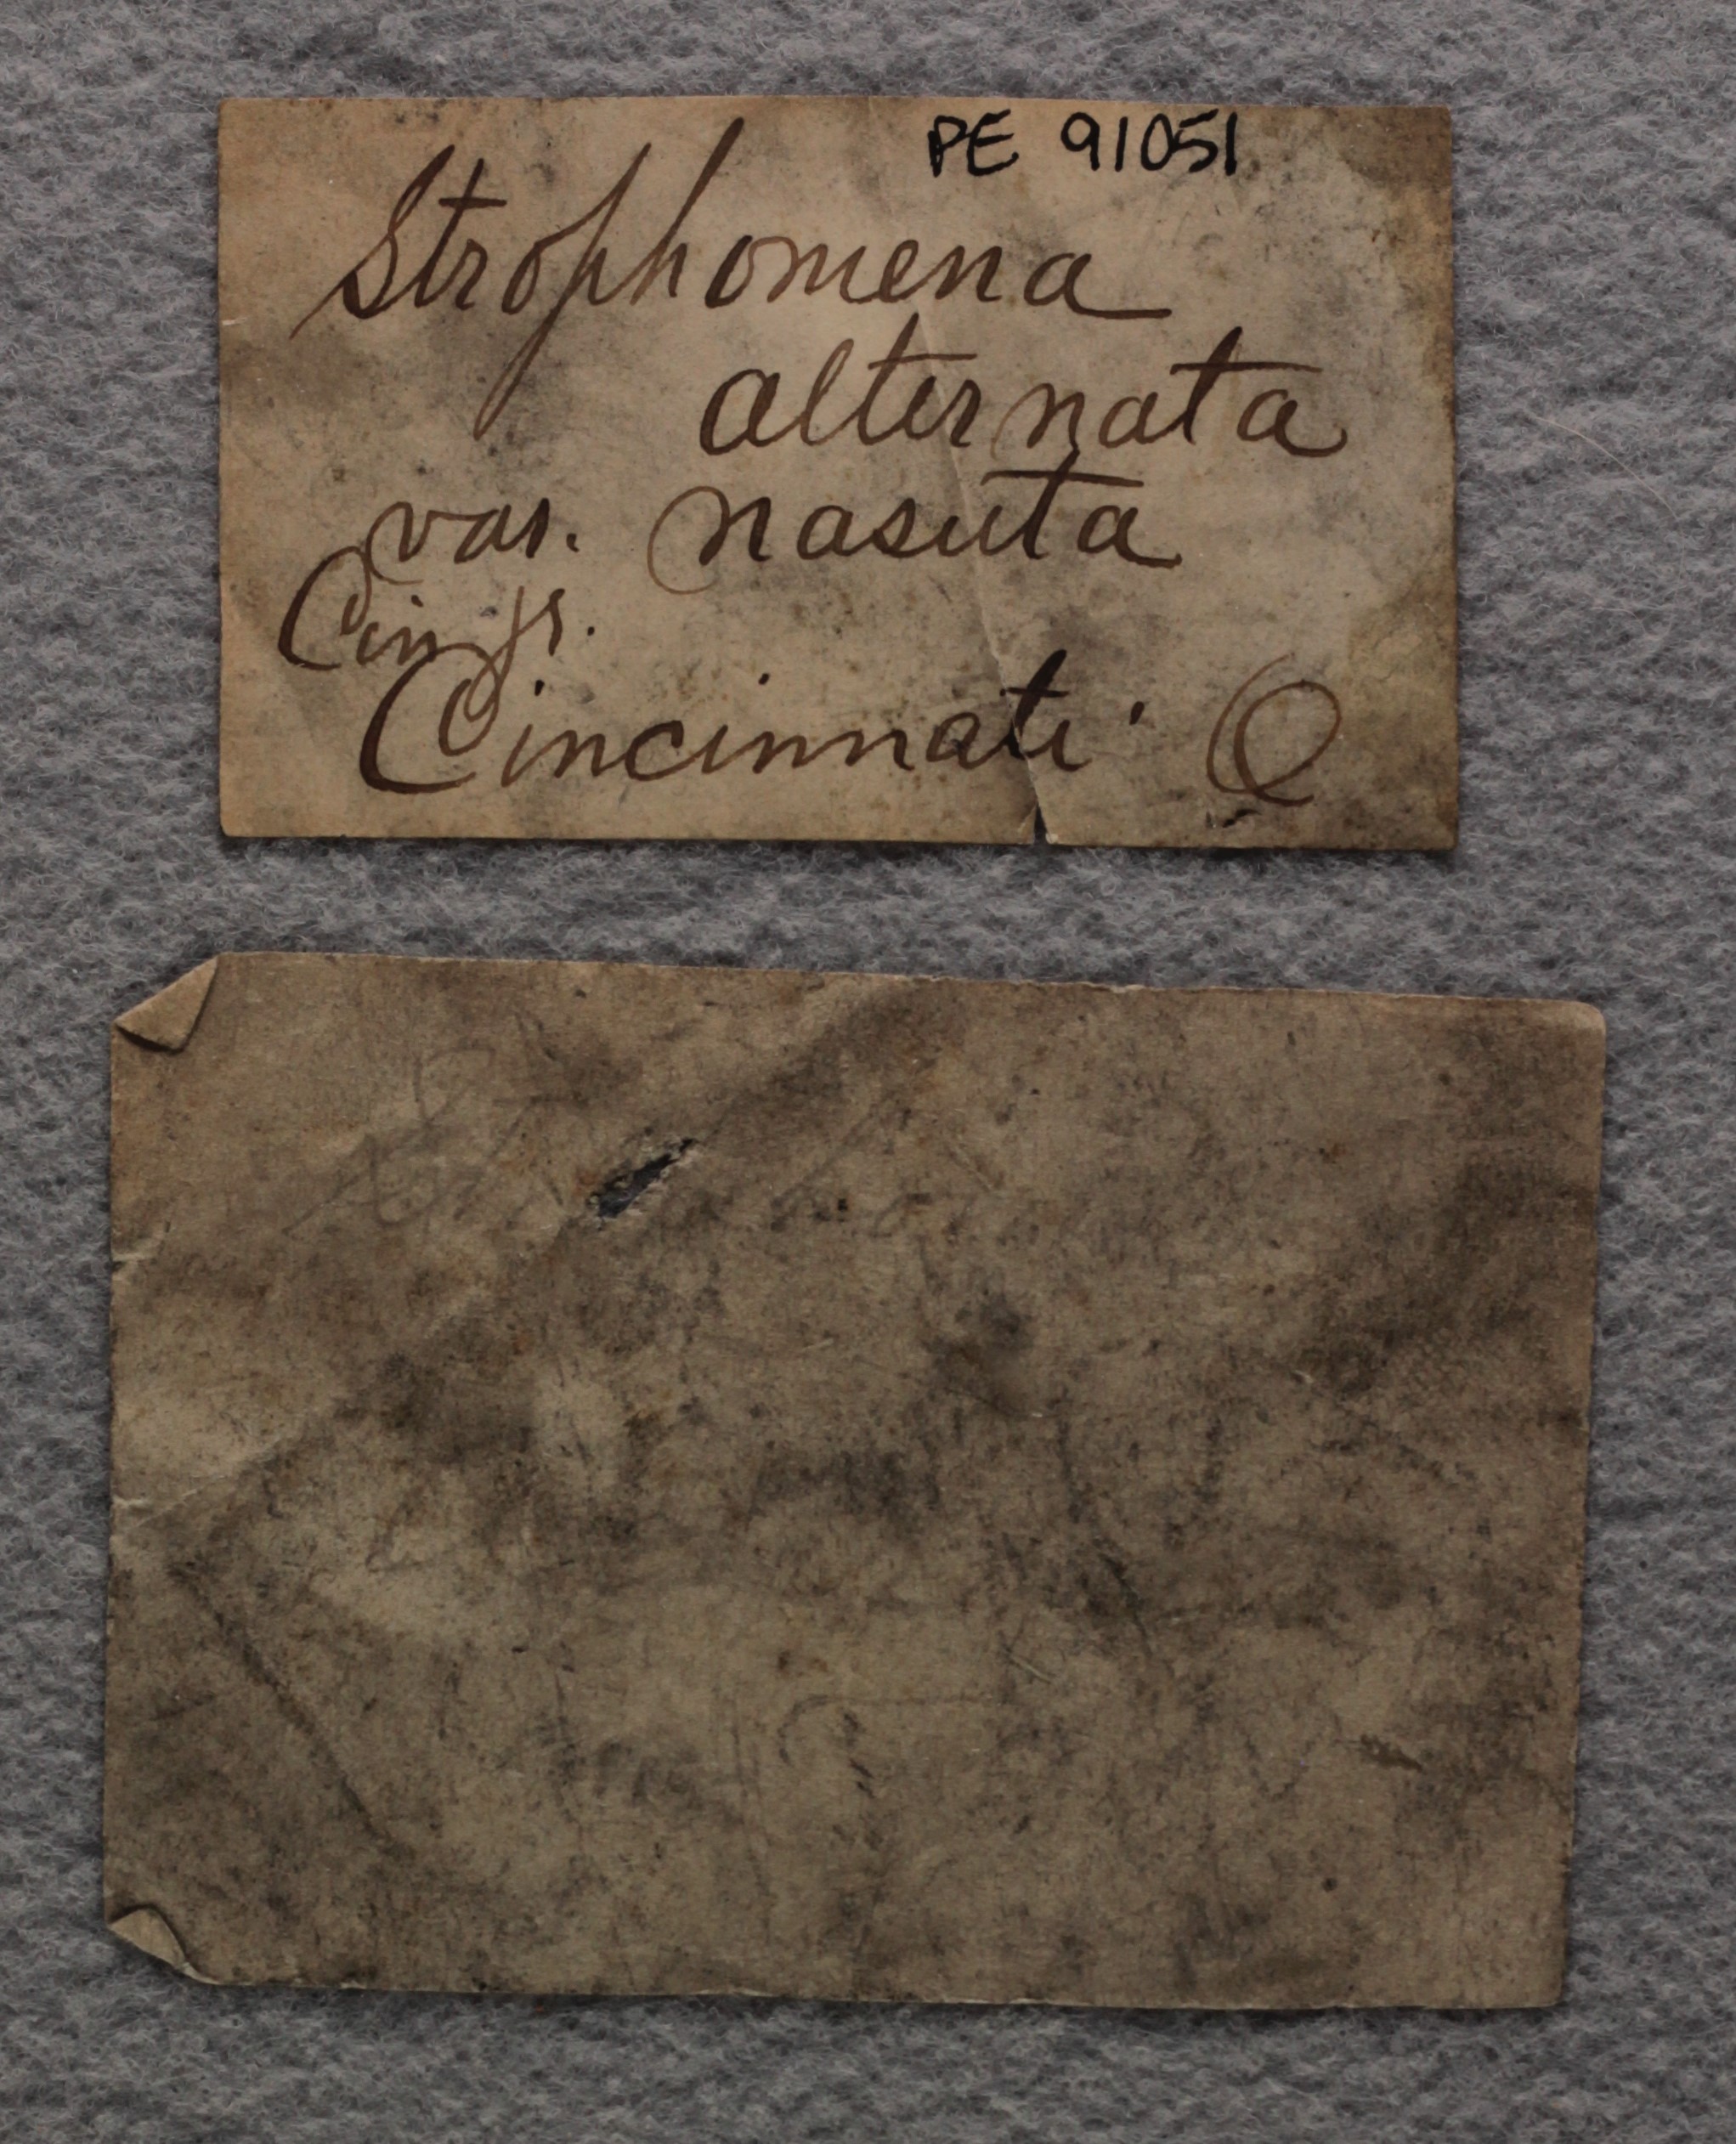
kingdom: Animalia
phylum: Brachiopoda
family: Strophomenidae
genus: Rafinesquina
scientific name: Rafinesquina Leptaena alternata
